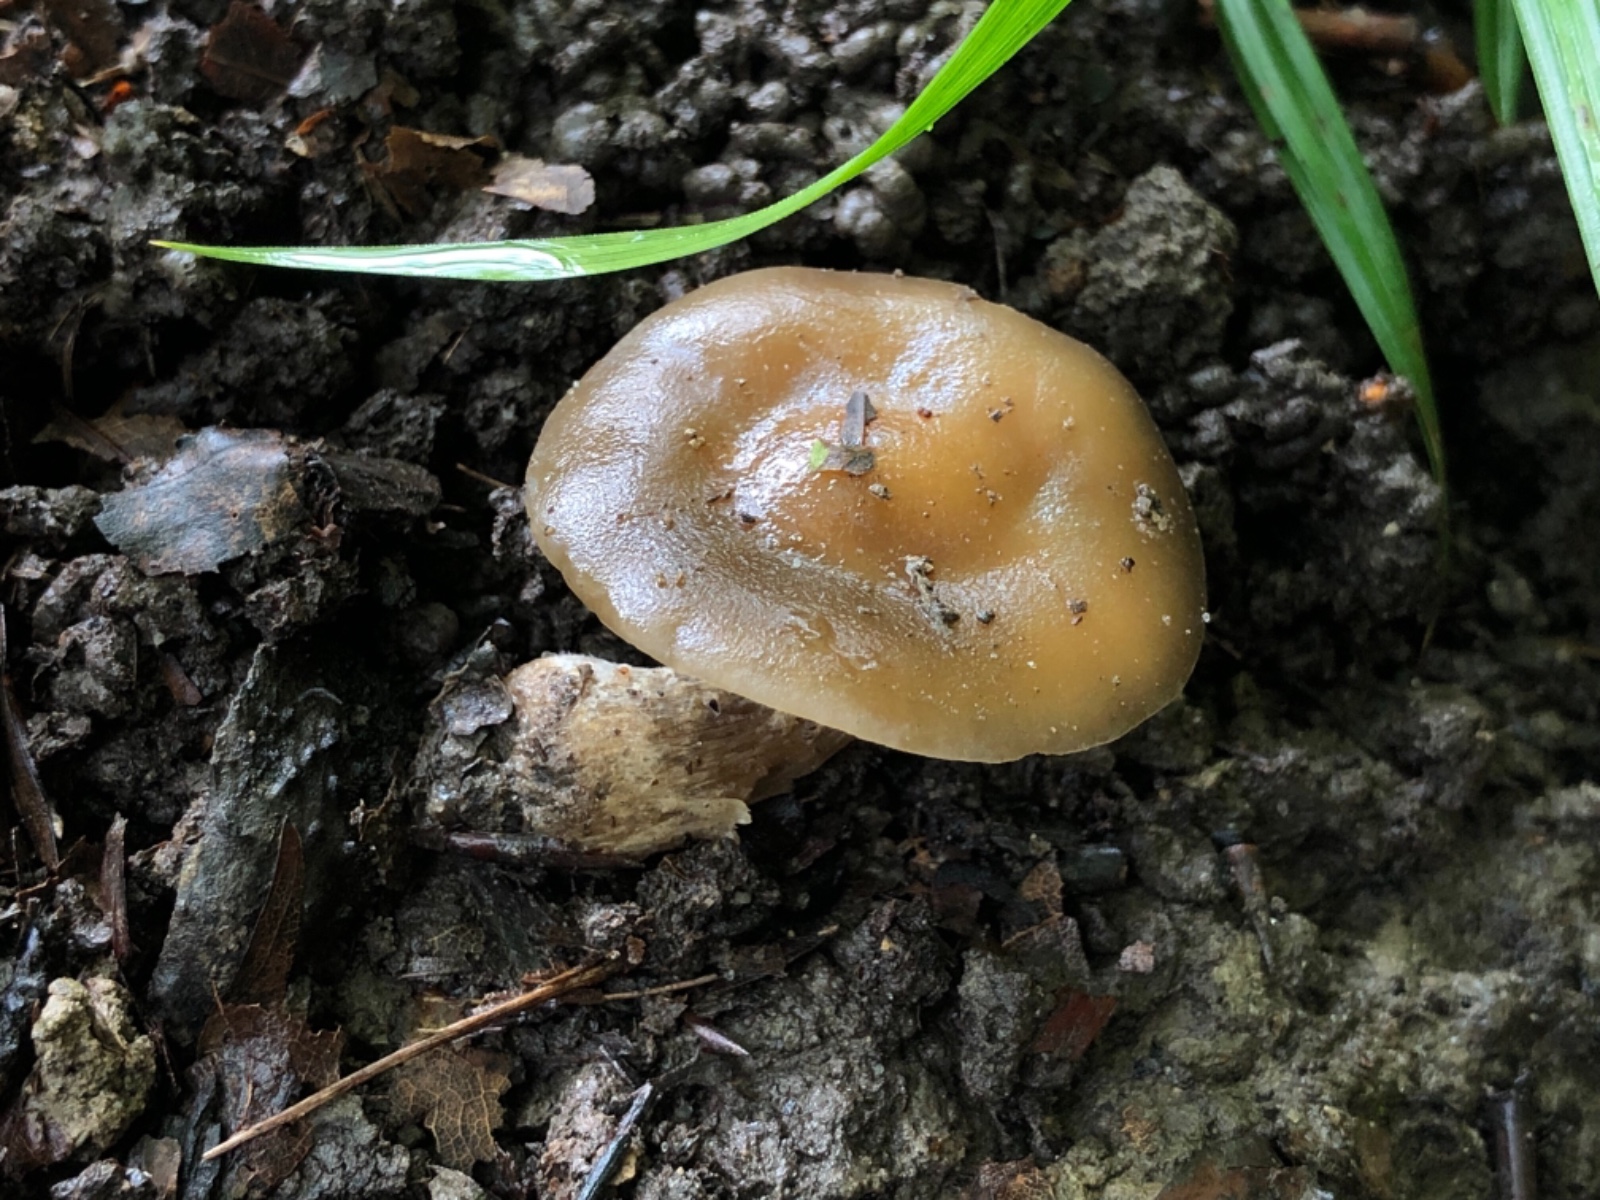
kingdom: Fungi
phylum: Basidiomycota
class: Agaricomycetes
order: Agaricales
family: Tricholomataceae
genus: Melanoleuca
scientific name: Melanoleuca polioleuca
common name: hvidbladet munkehat
